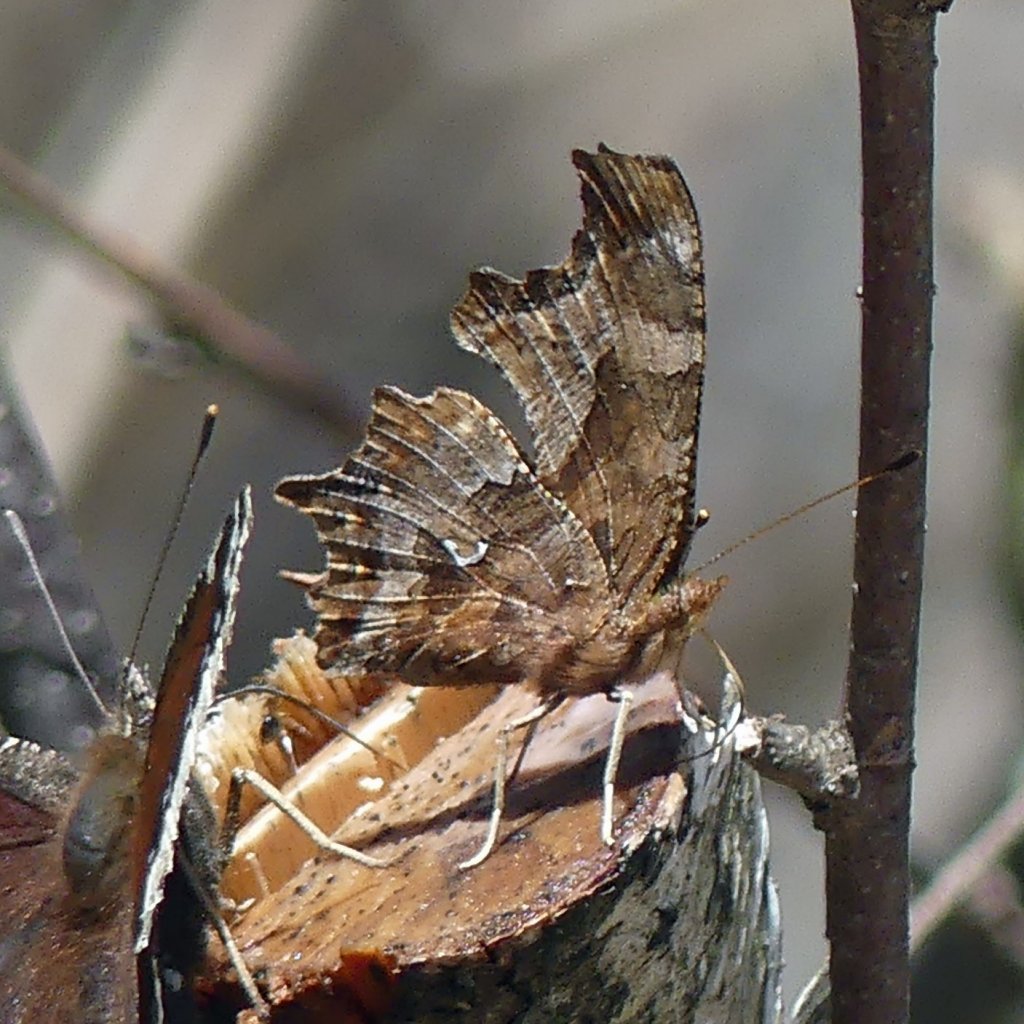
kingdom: Animalia
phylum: Arthropoda
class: Insecta
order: Lepidoptera
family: Nymphalidae
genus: Polygonia
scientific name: Polygonia comma
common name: Eastern Comma
